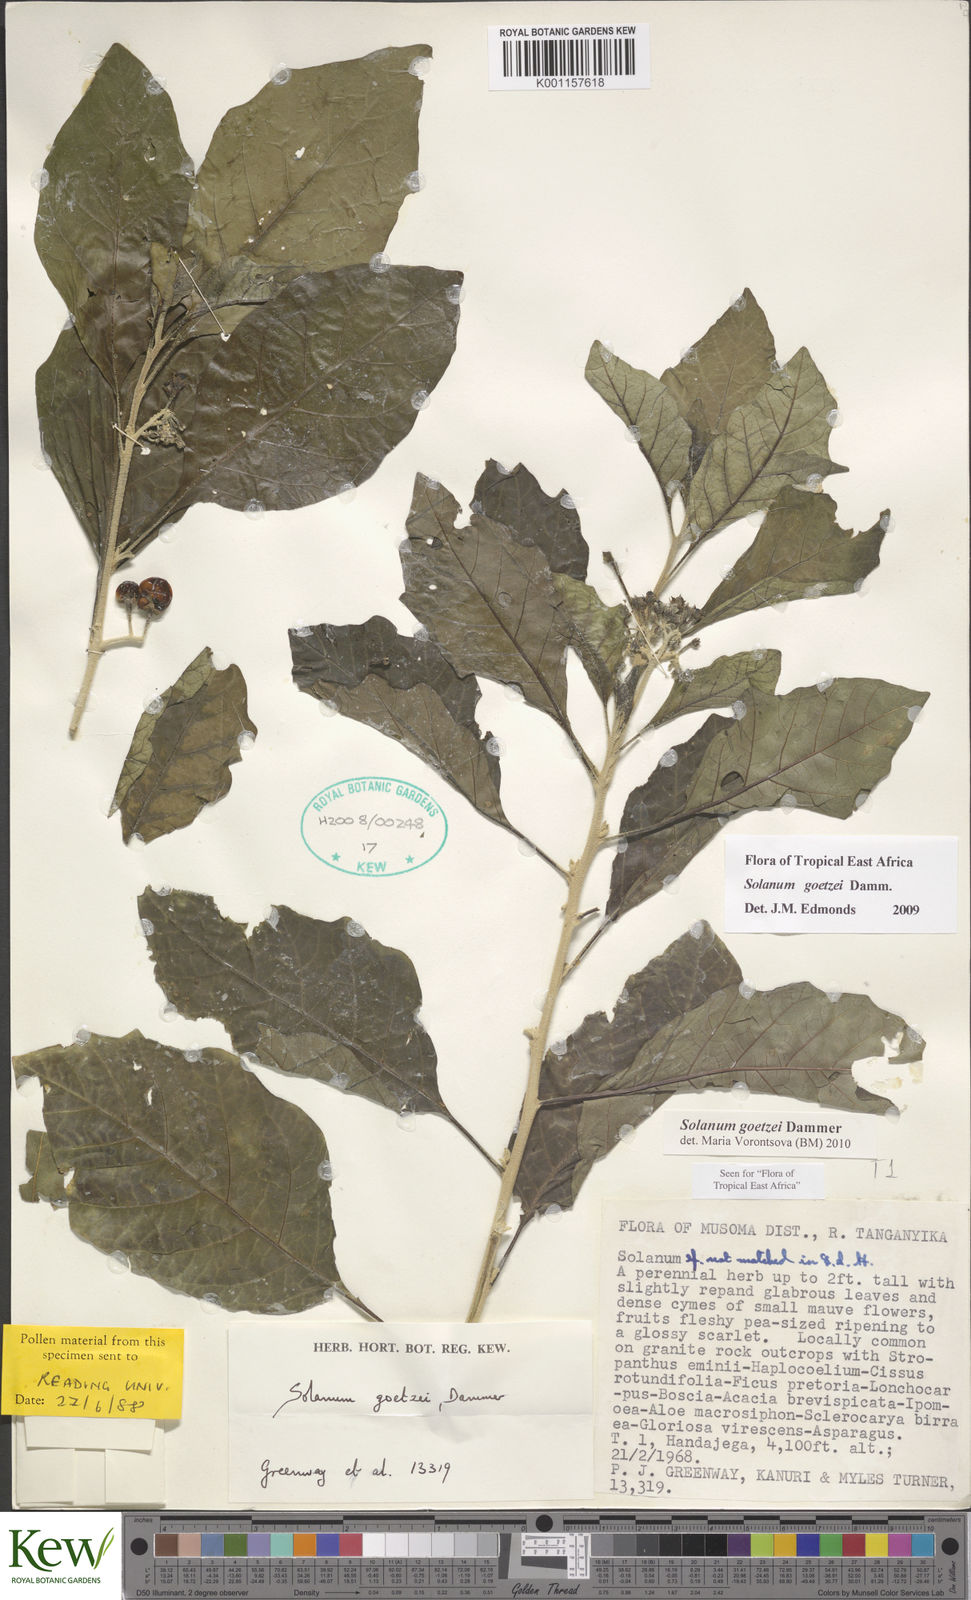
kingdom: Plantae
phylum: Tracheophyta
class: Magnoliopsida
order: Solanales
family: Solanaceae
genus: Solanum
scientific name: Solanum goetzei
